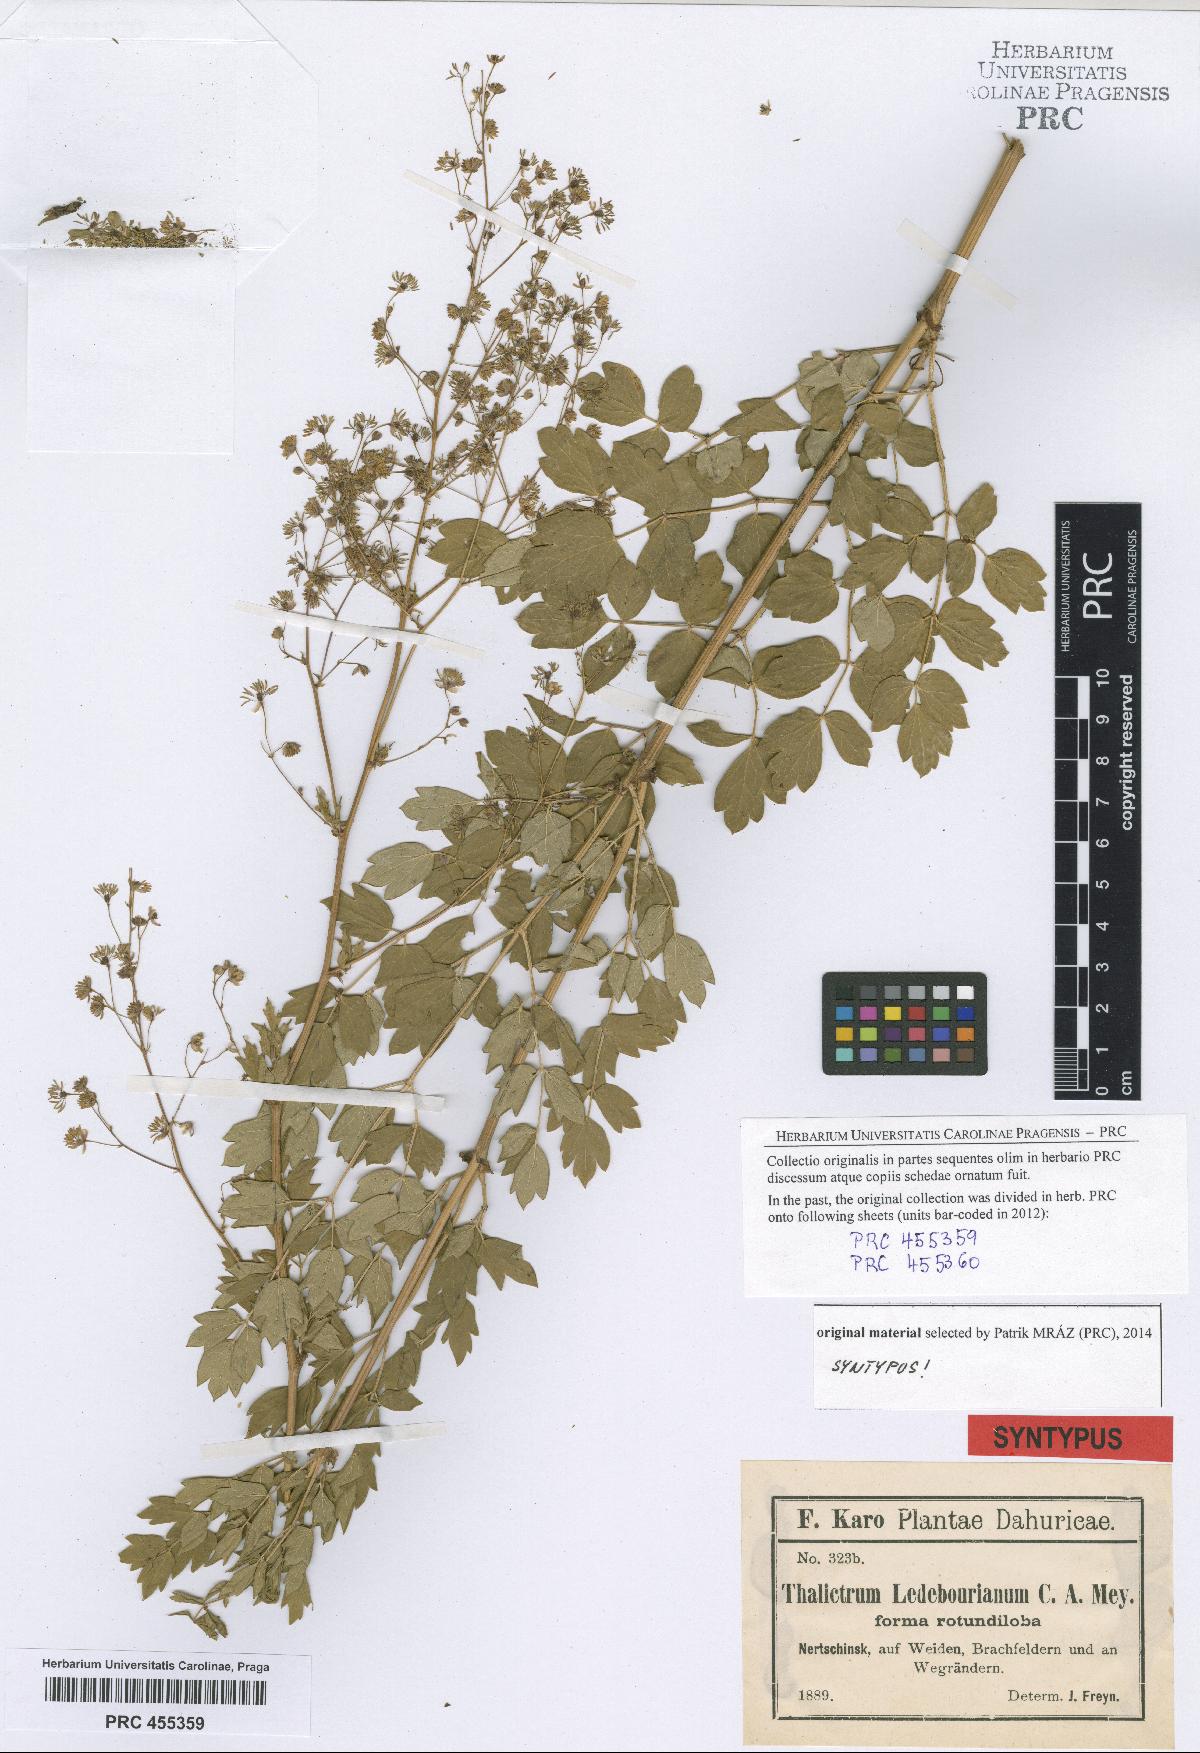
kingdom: Plantae
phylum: Tracheophyta
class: Magnoliopsida
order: Ranunculales
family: Ranunculaceae
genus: Thalictrum
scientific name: Thalictrum squarrosum
